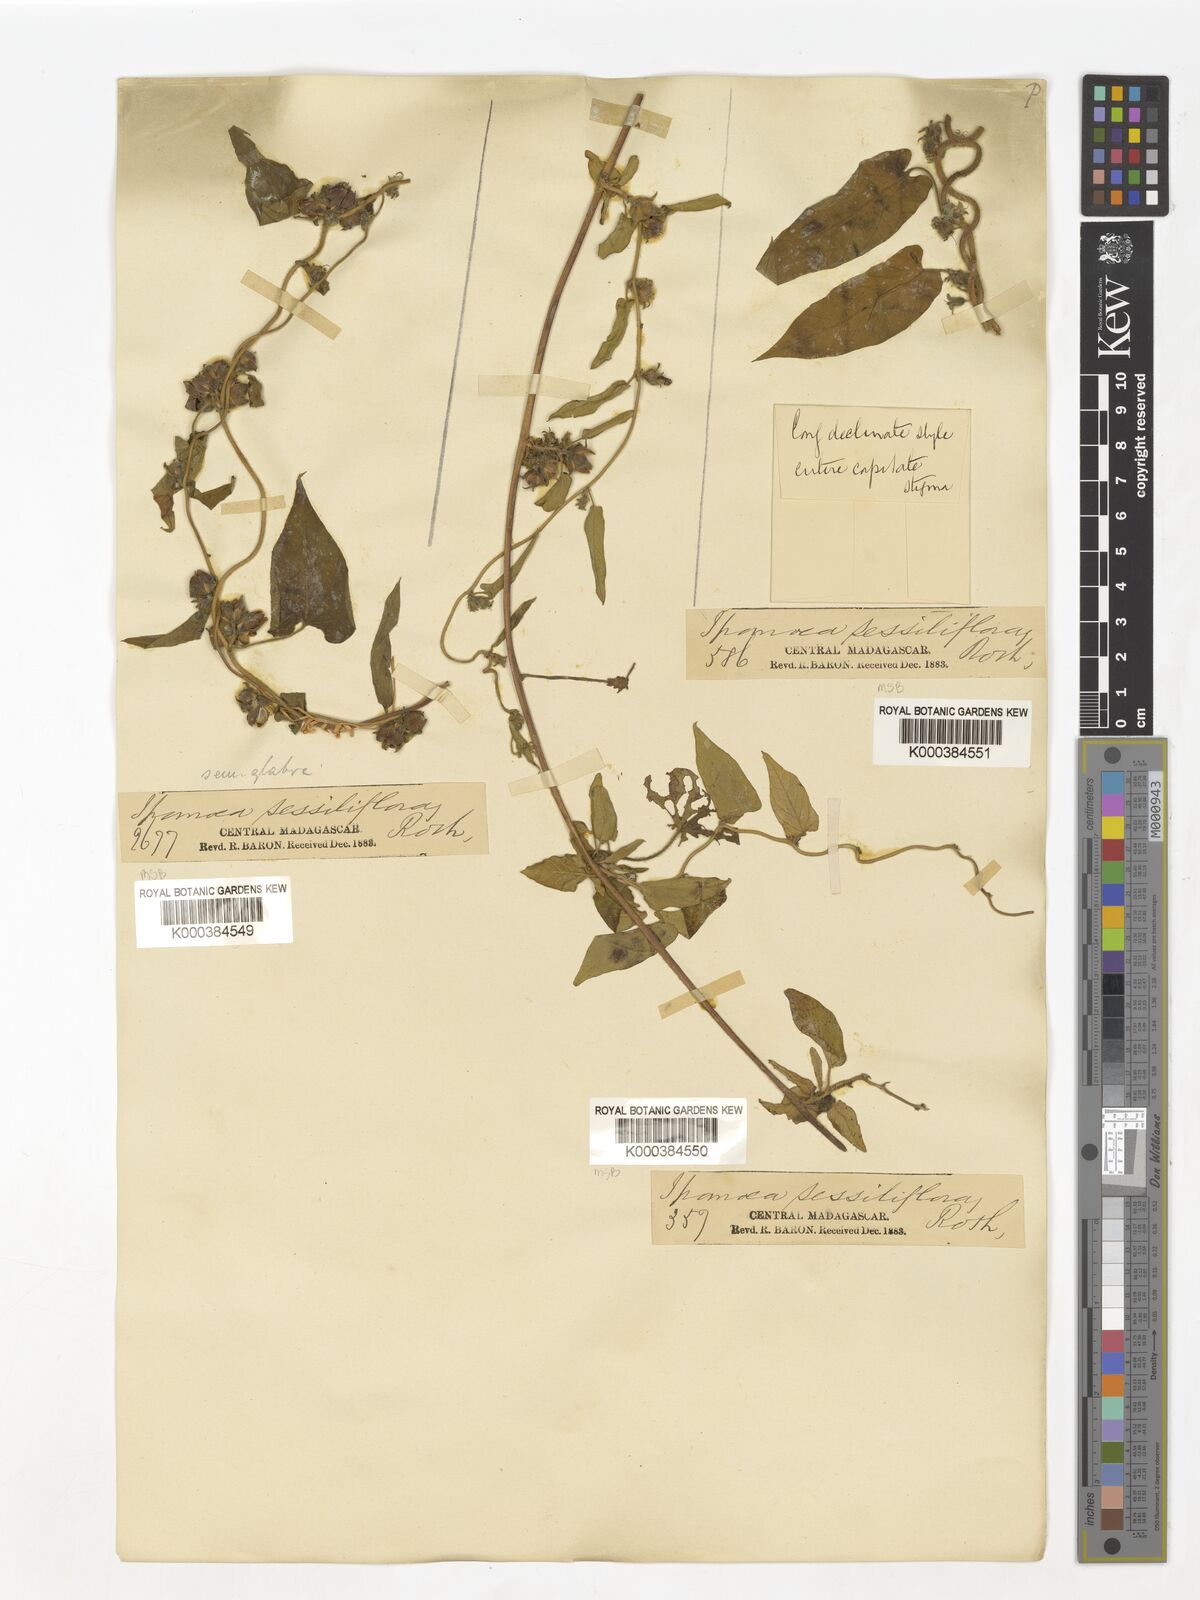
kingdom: Plantae
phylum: Tracheophyta
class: Magnoliopsida
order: Solanales
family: Convolvulaceae
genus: Ipomoea
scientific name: Ipomoea eriocarpa
